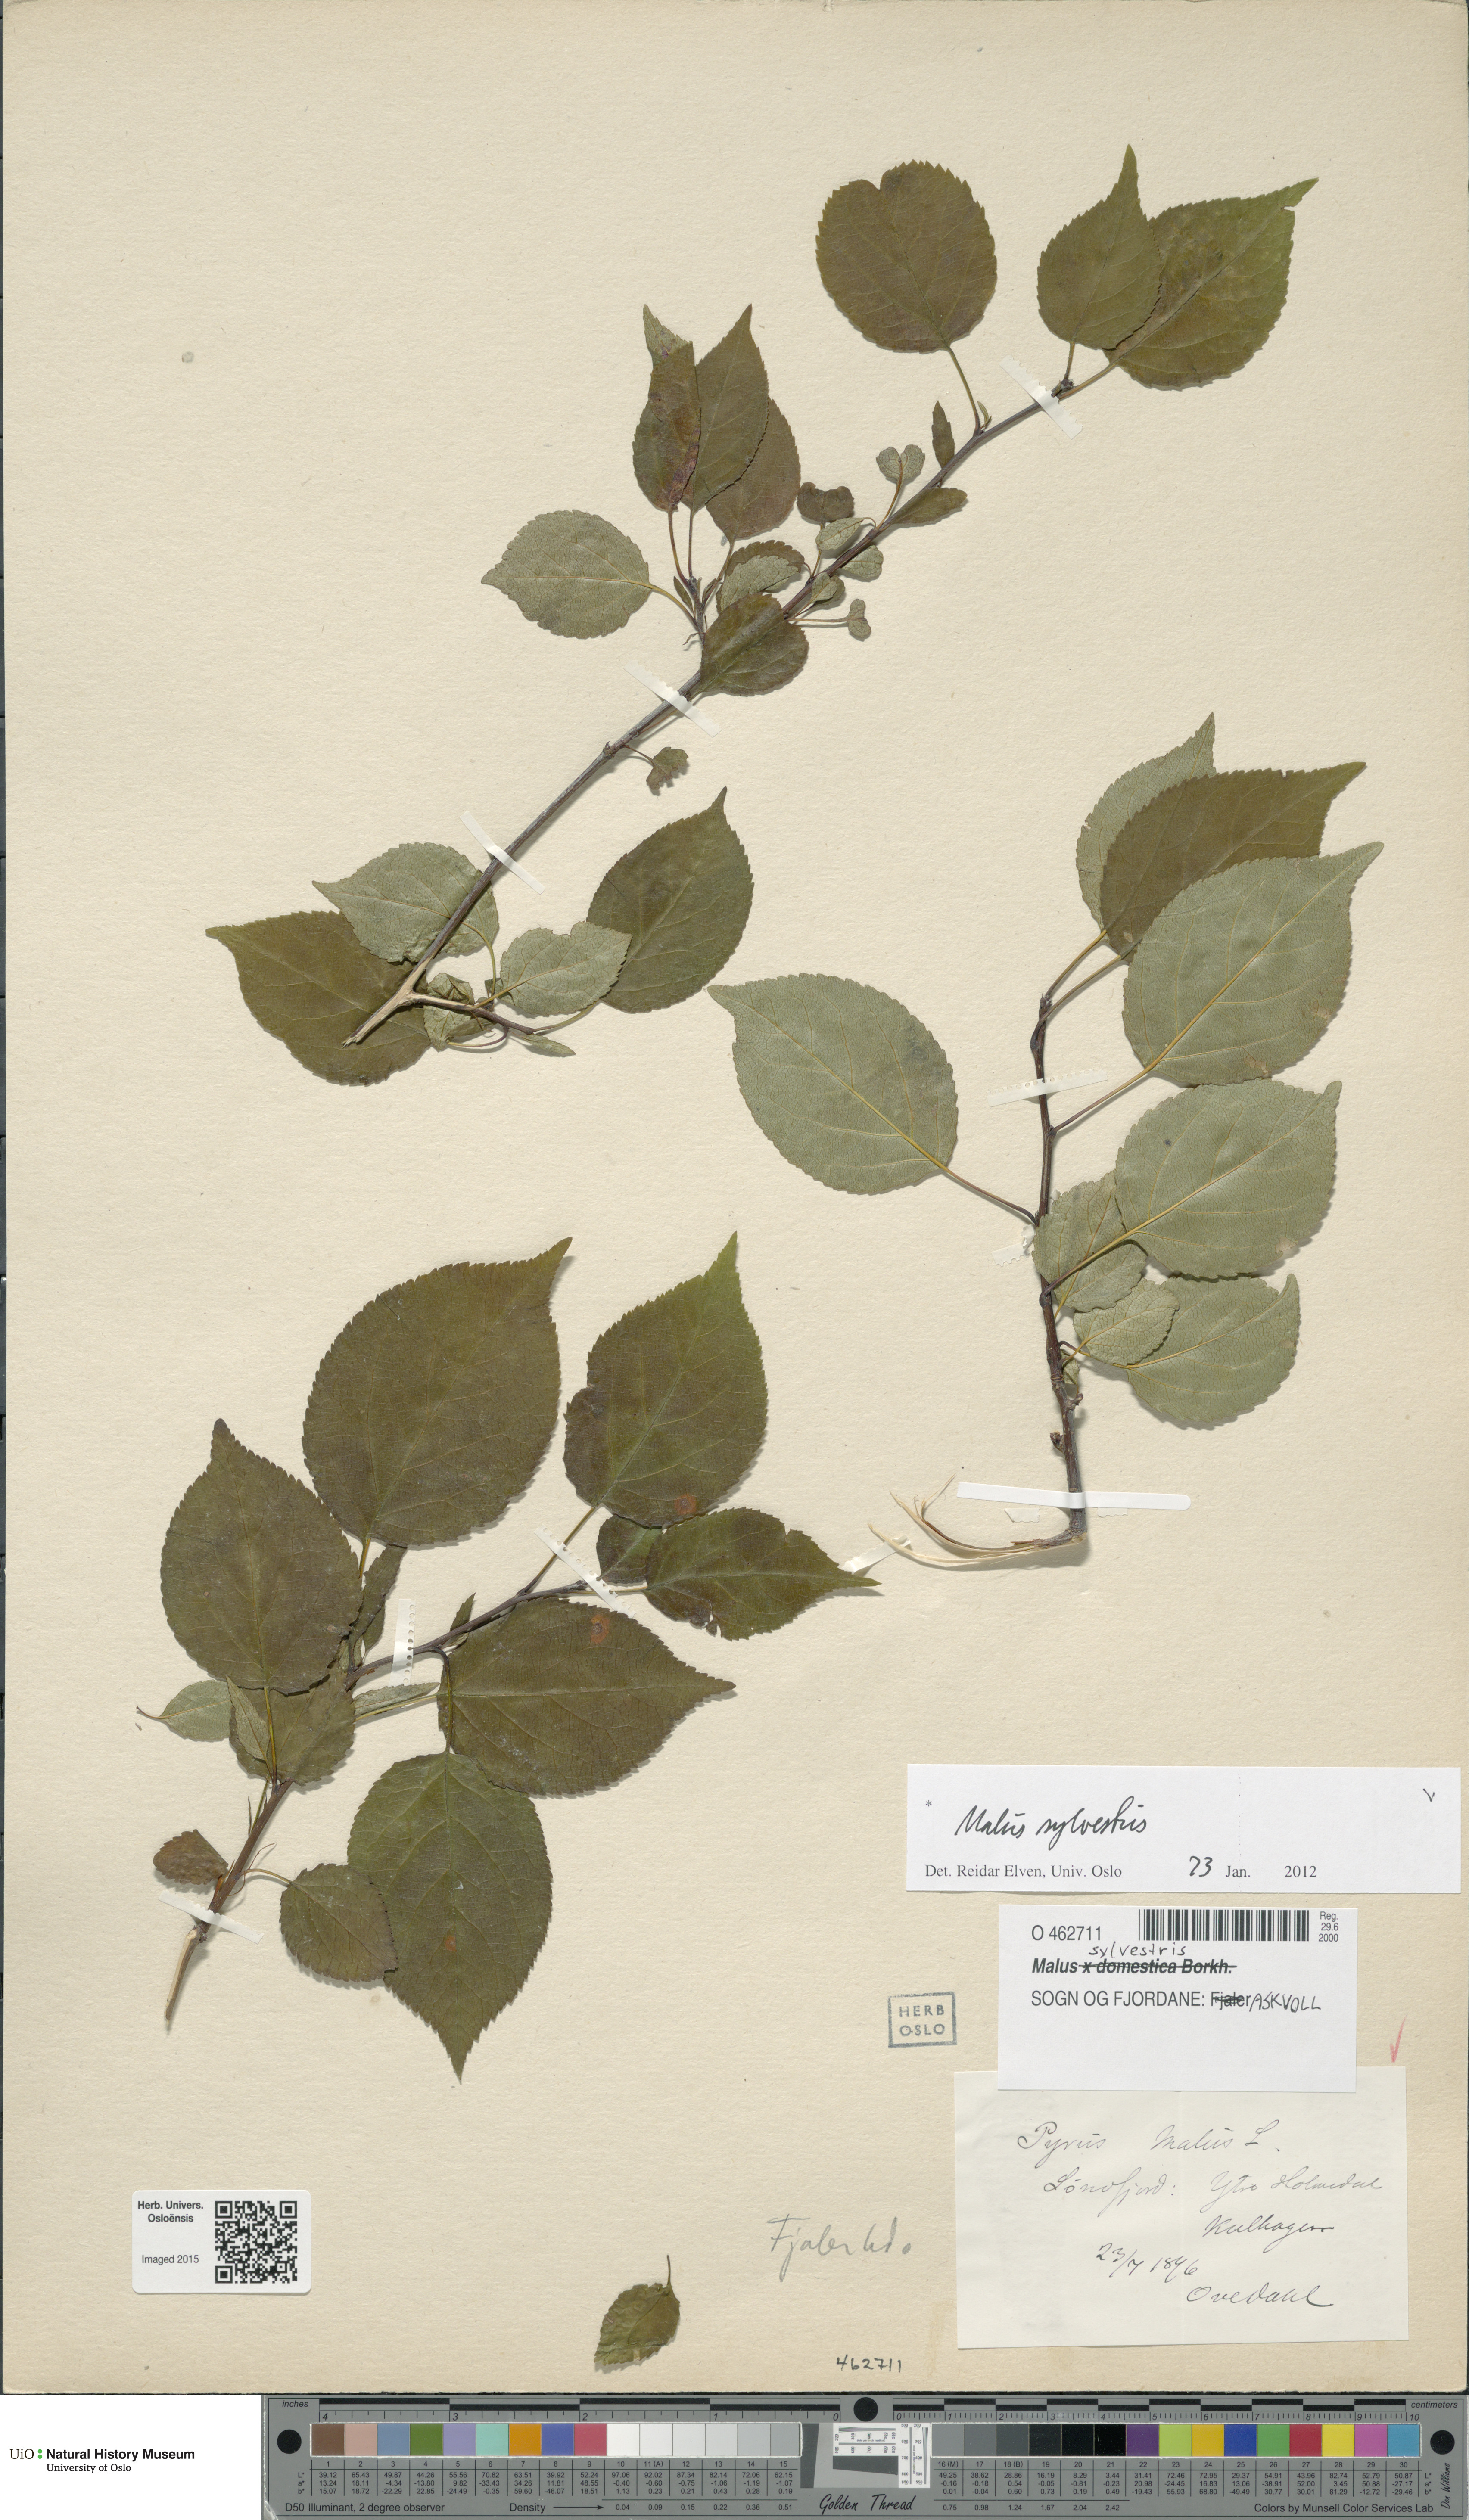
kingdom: Plantae
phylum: Tracheophyta
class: Magnoliopsida
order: Rosales
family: Rosaceae
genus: Malus
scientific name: Malus sylvestris
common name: Crab apple
